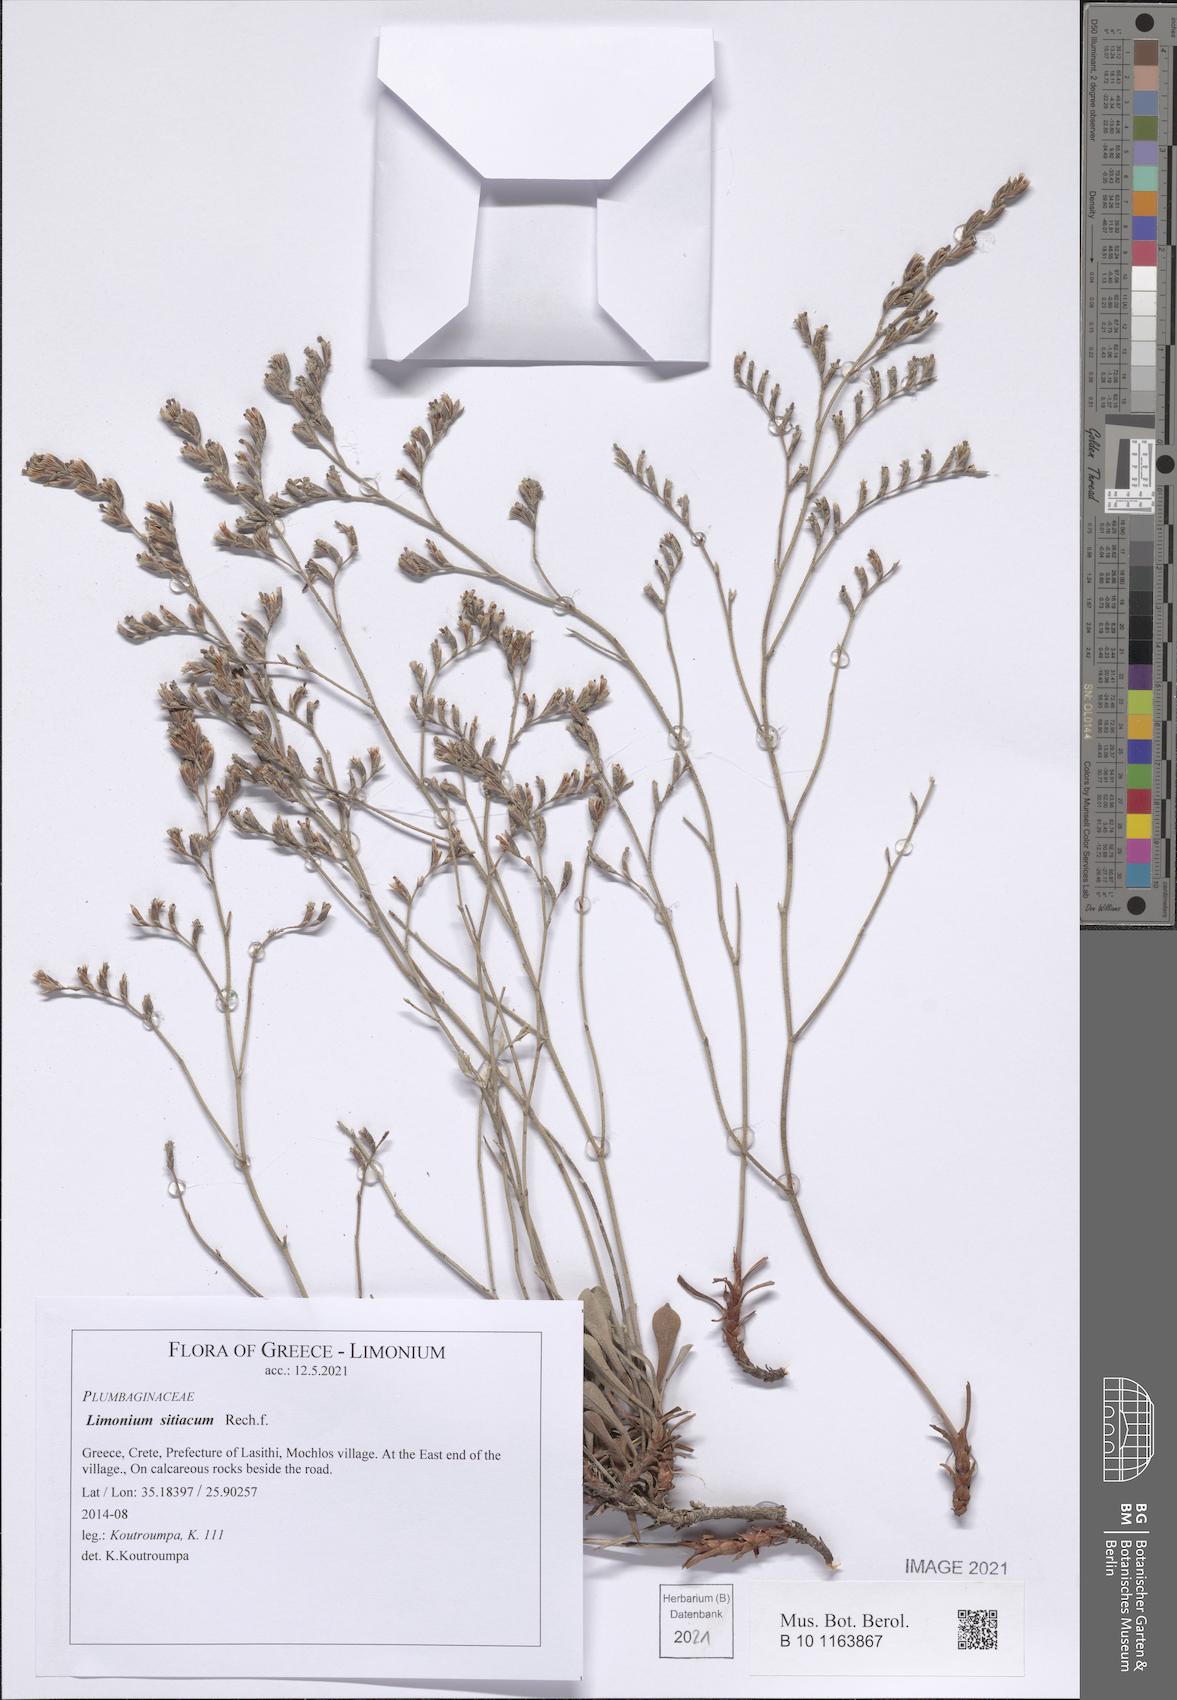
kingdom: Plantae
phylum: Tracheophyta
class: Magnoliopsida
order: Caryophyllales
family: Plumbaginaceae
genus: Limonium
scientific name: Limonium sitiacum
